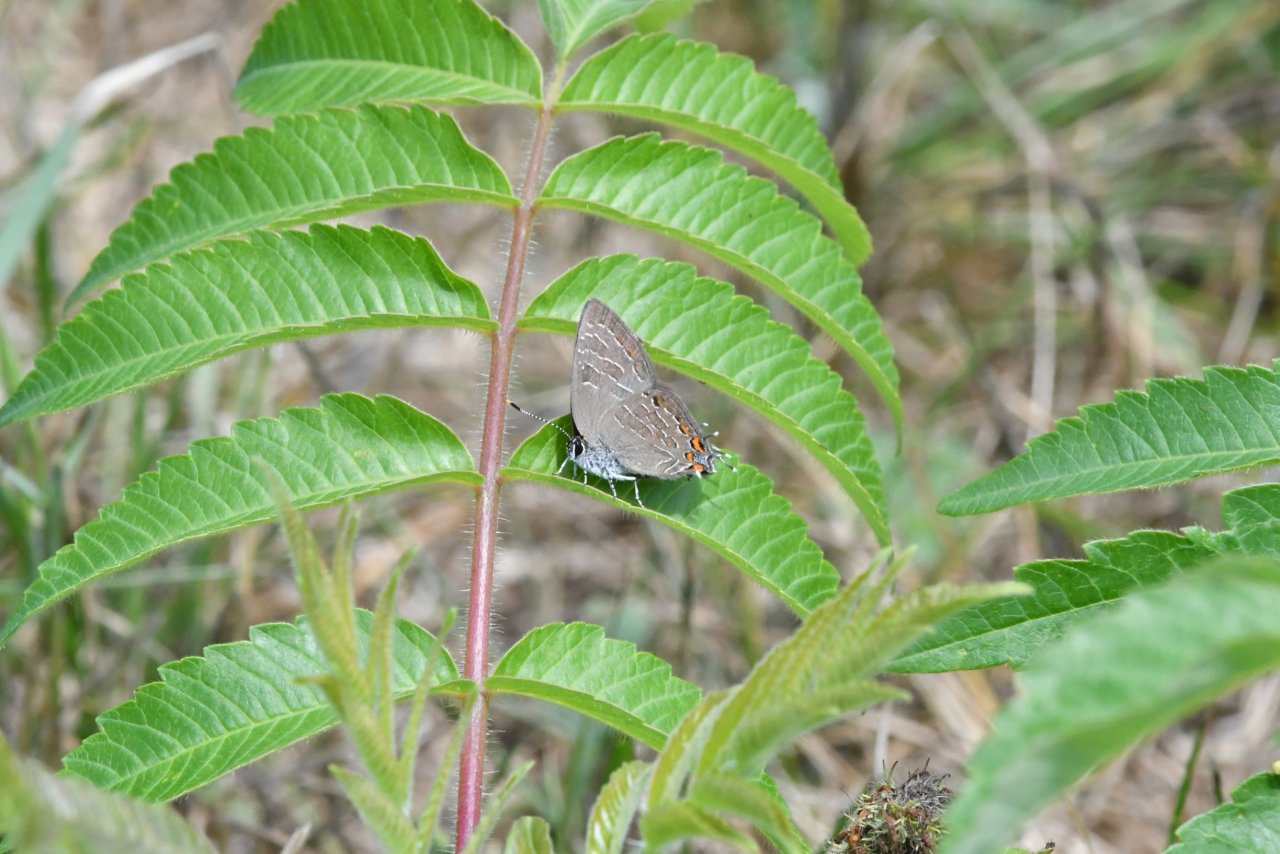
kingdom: Animalia
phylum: Arthropoda
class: Insecta
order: Lepidoptera
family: Lycaenidae
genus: Satyrium
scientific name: Satyrium liparops
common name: Striped Hairstreak
